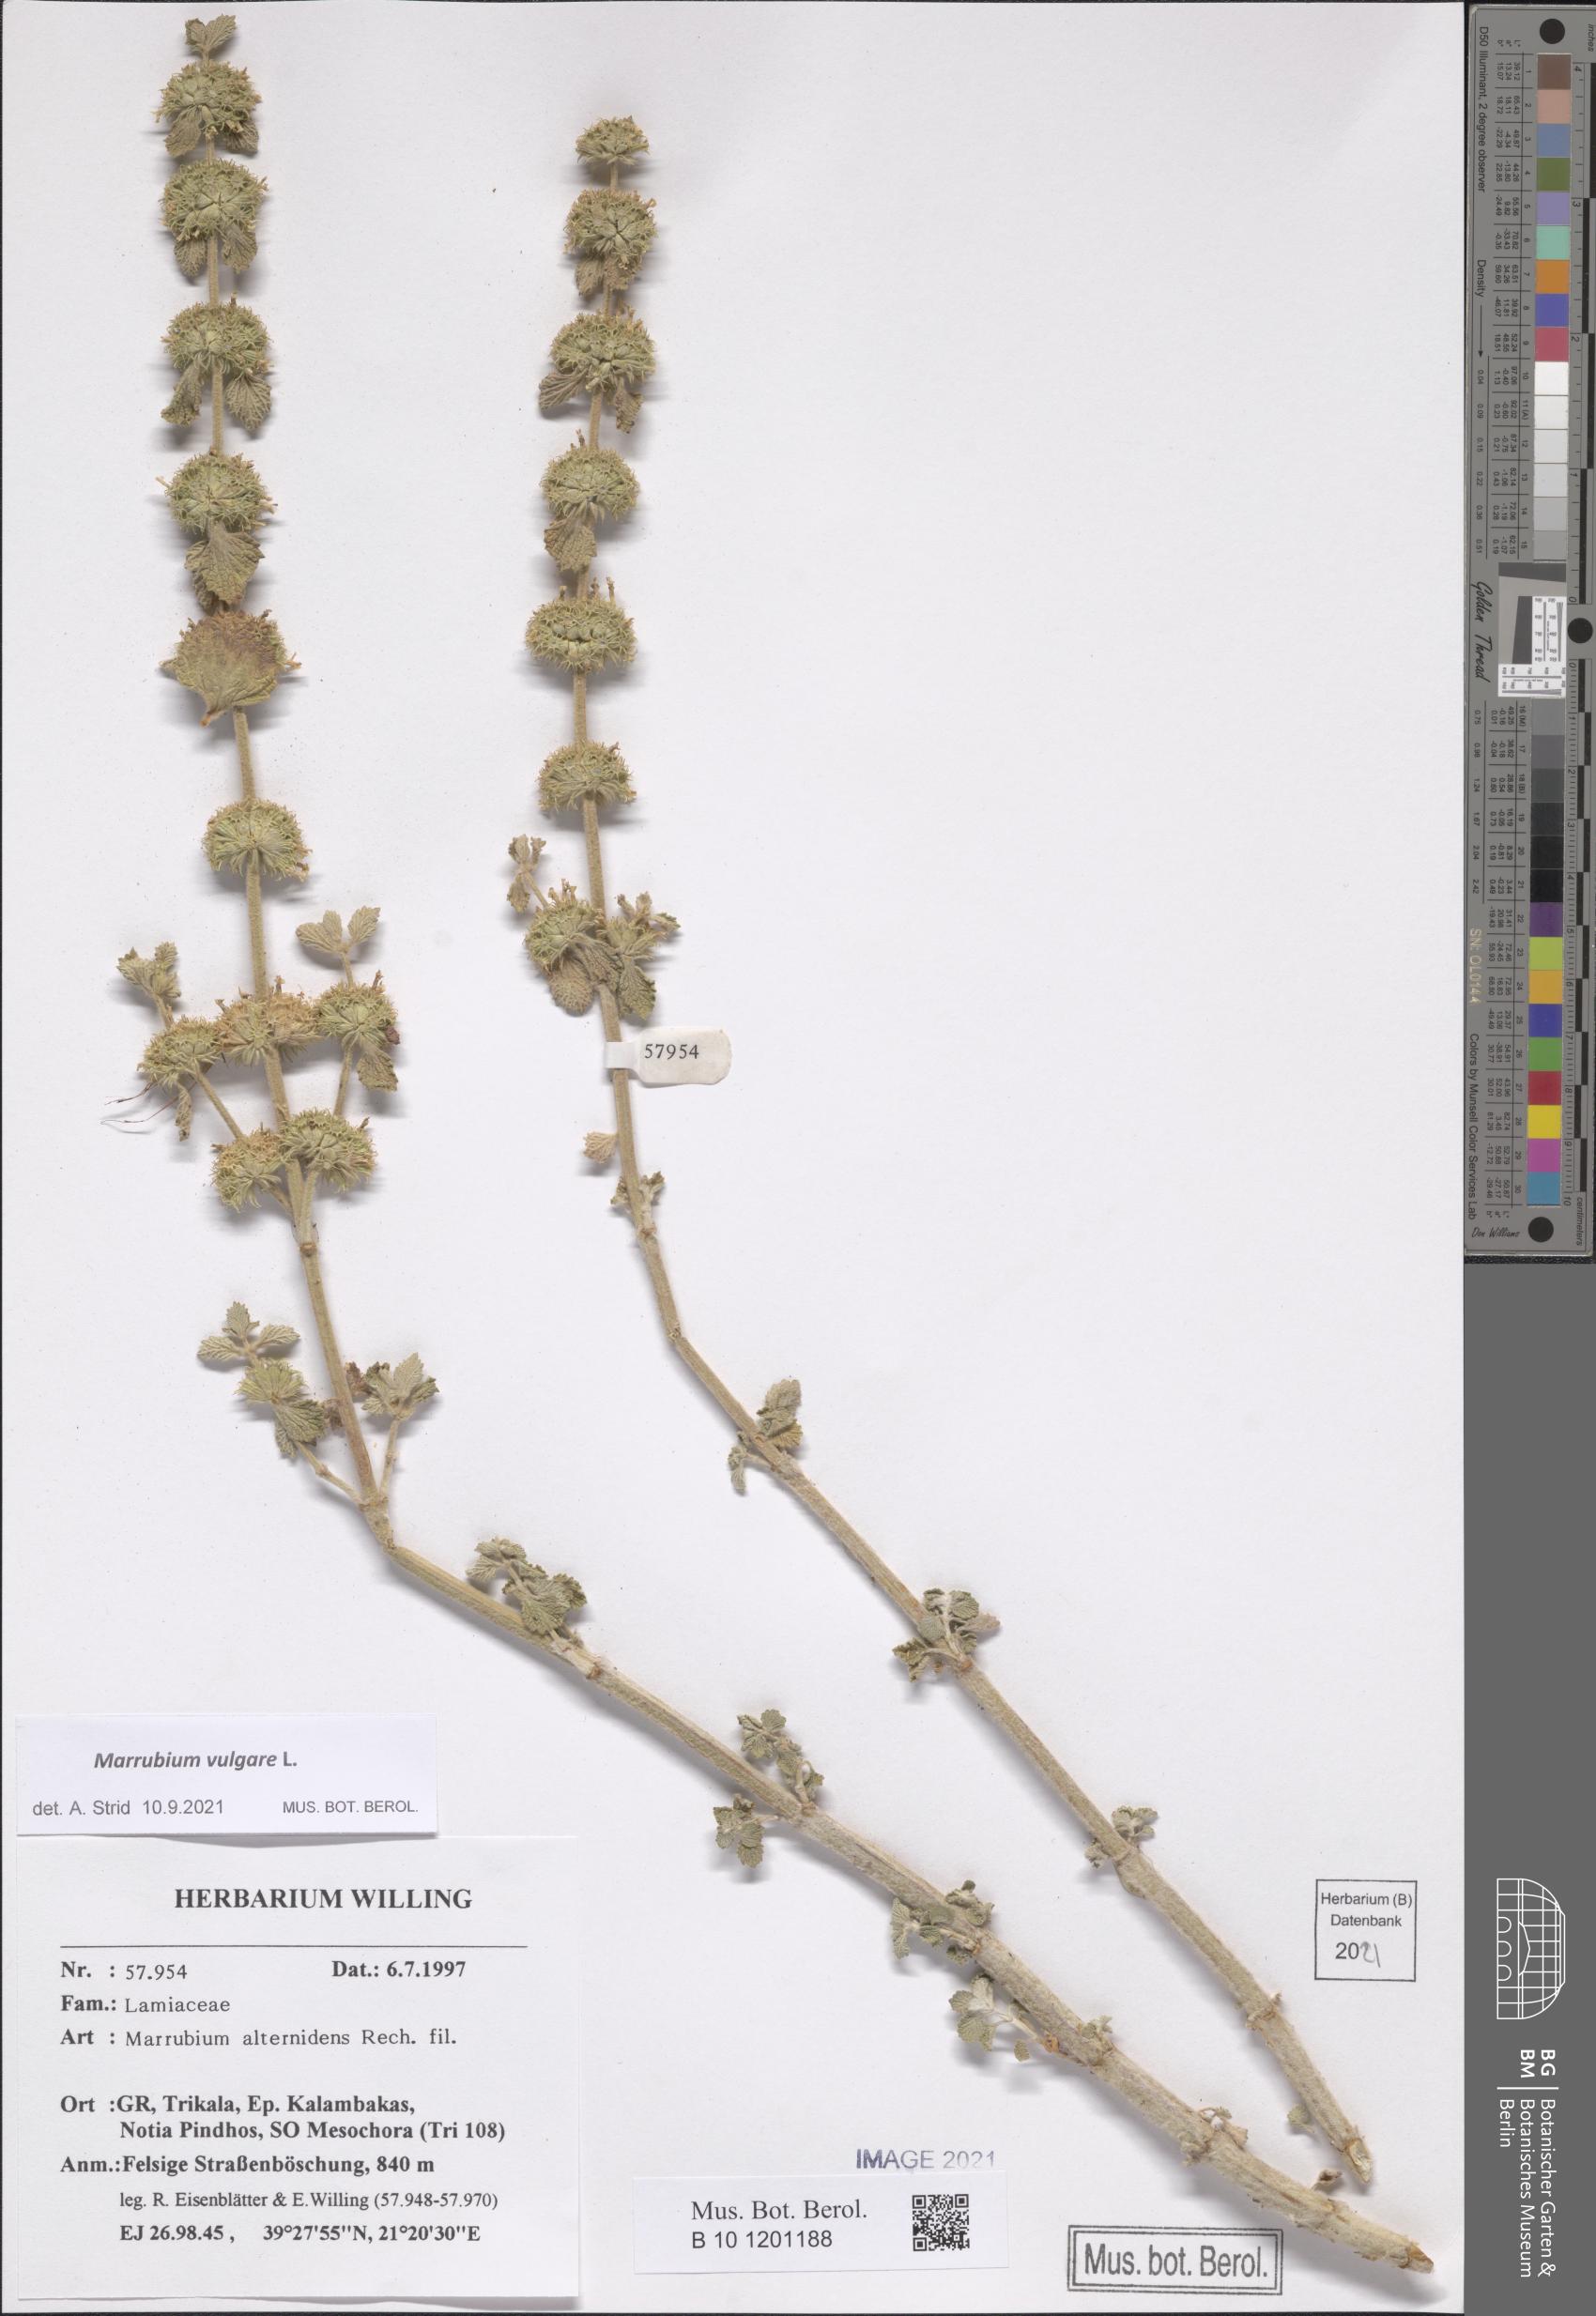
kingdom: Plantae
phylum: Tracheophyta
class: Magnoliopsida
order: Lamiales
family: Lamiaceae
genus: Marrubium
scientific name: Marrubium vulgare
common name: Horehound
